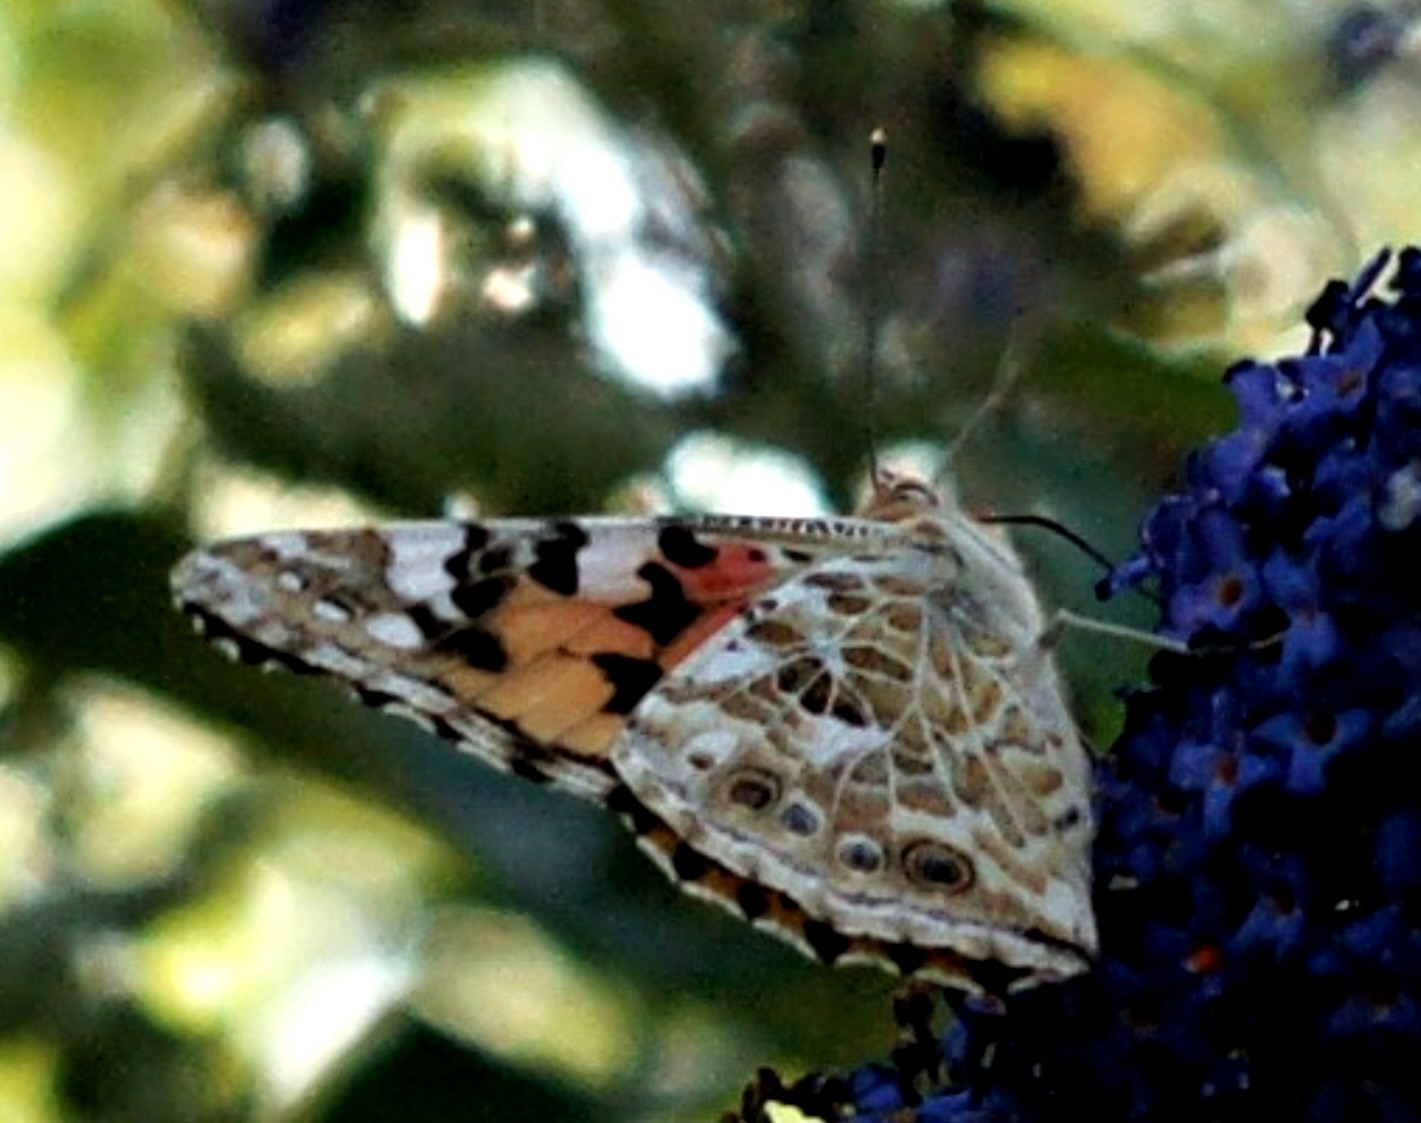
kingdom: Animalia
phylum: Arthropoda
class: Insecta
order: Lepidoptera
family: Nymphalidae
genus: Vanessa
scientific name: Vanessa cardui
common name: Tidselsommerfugl
